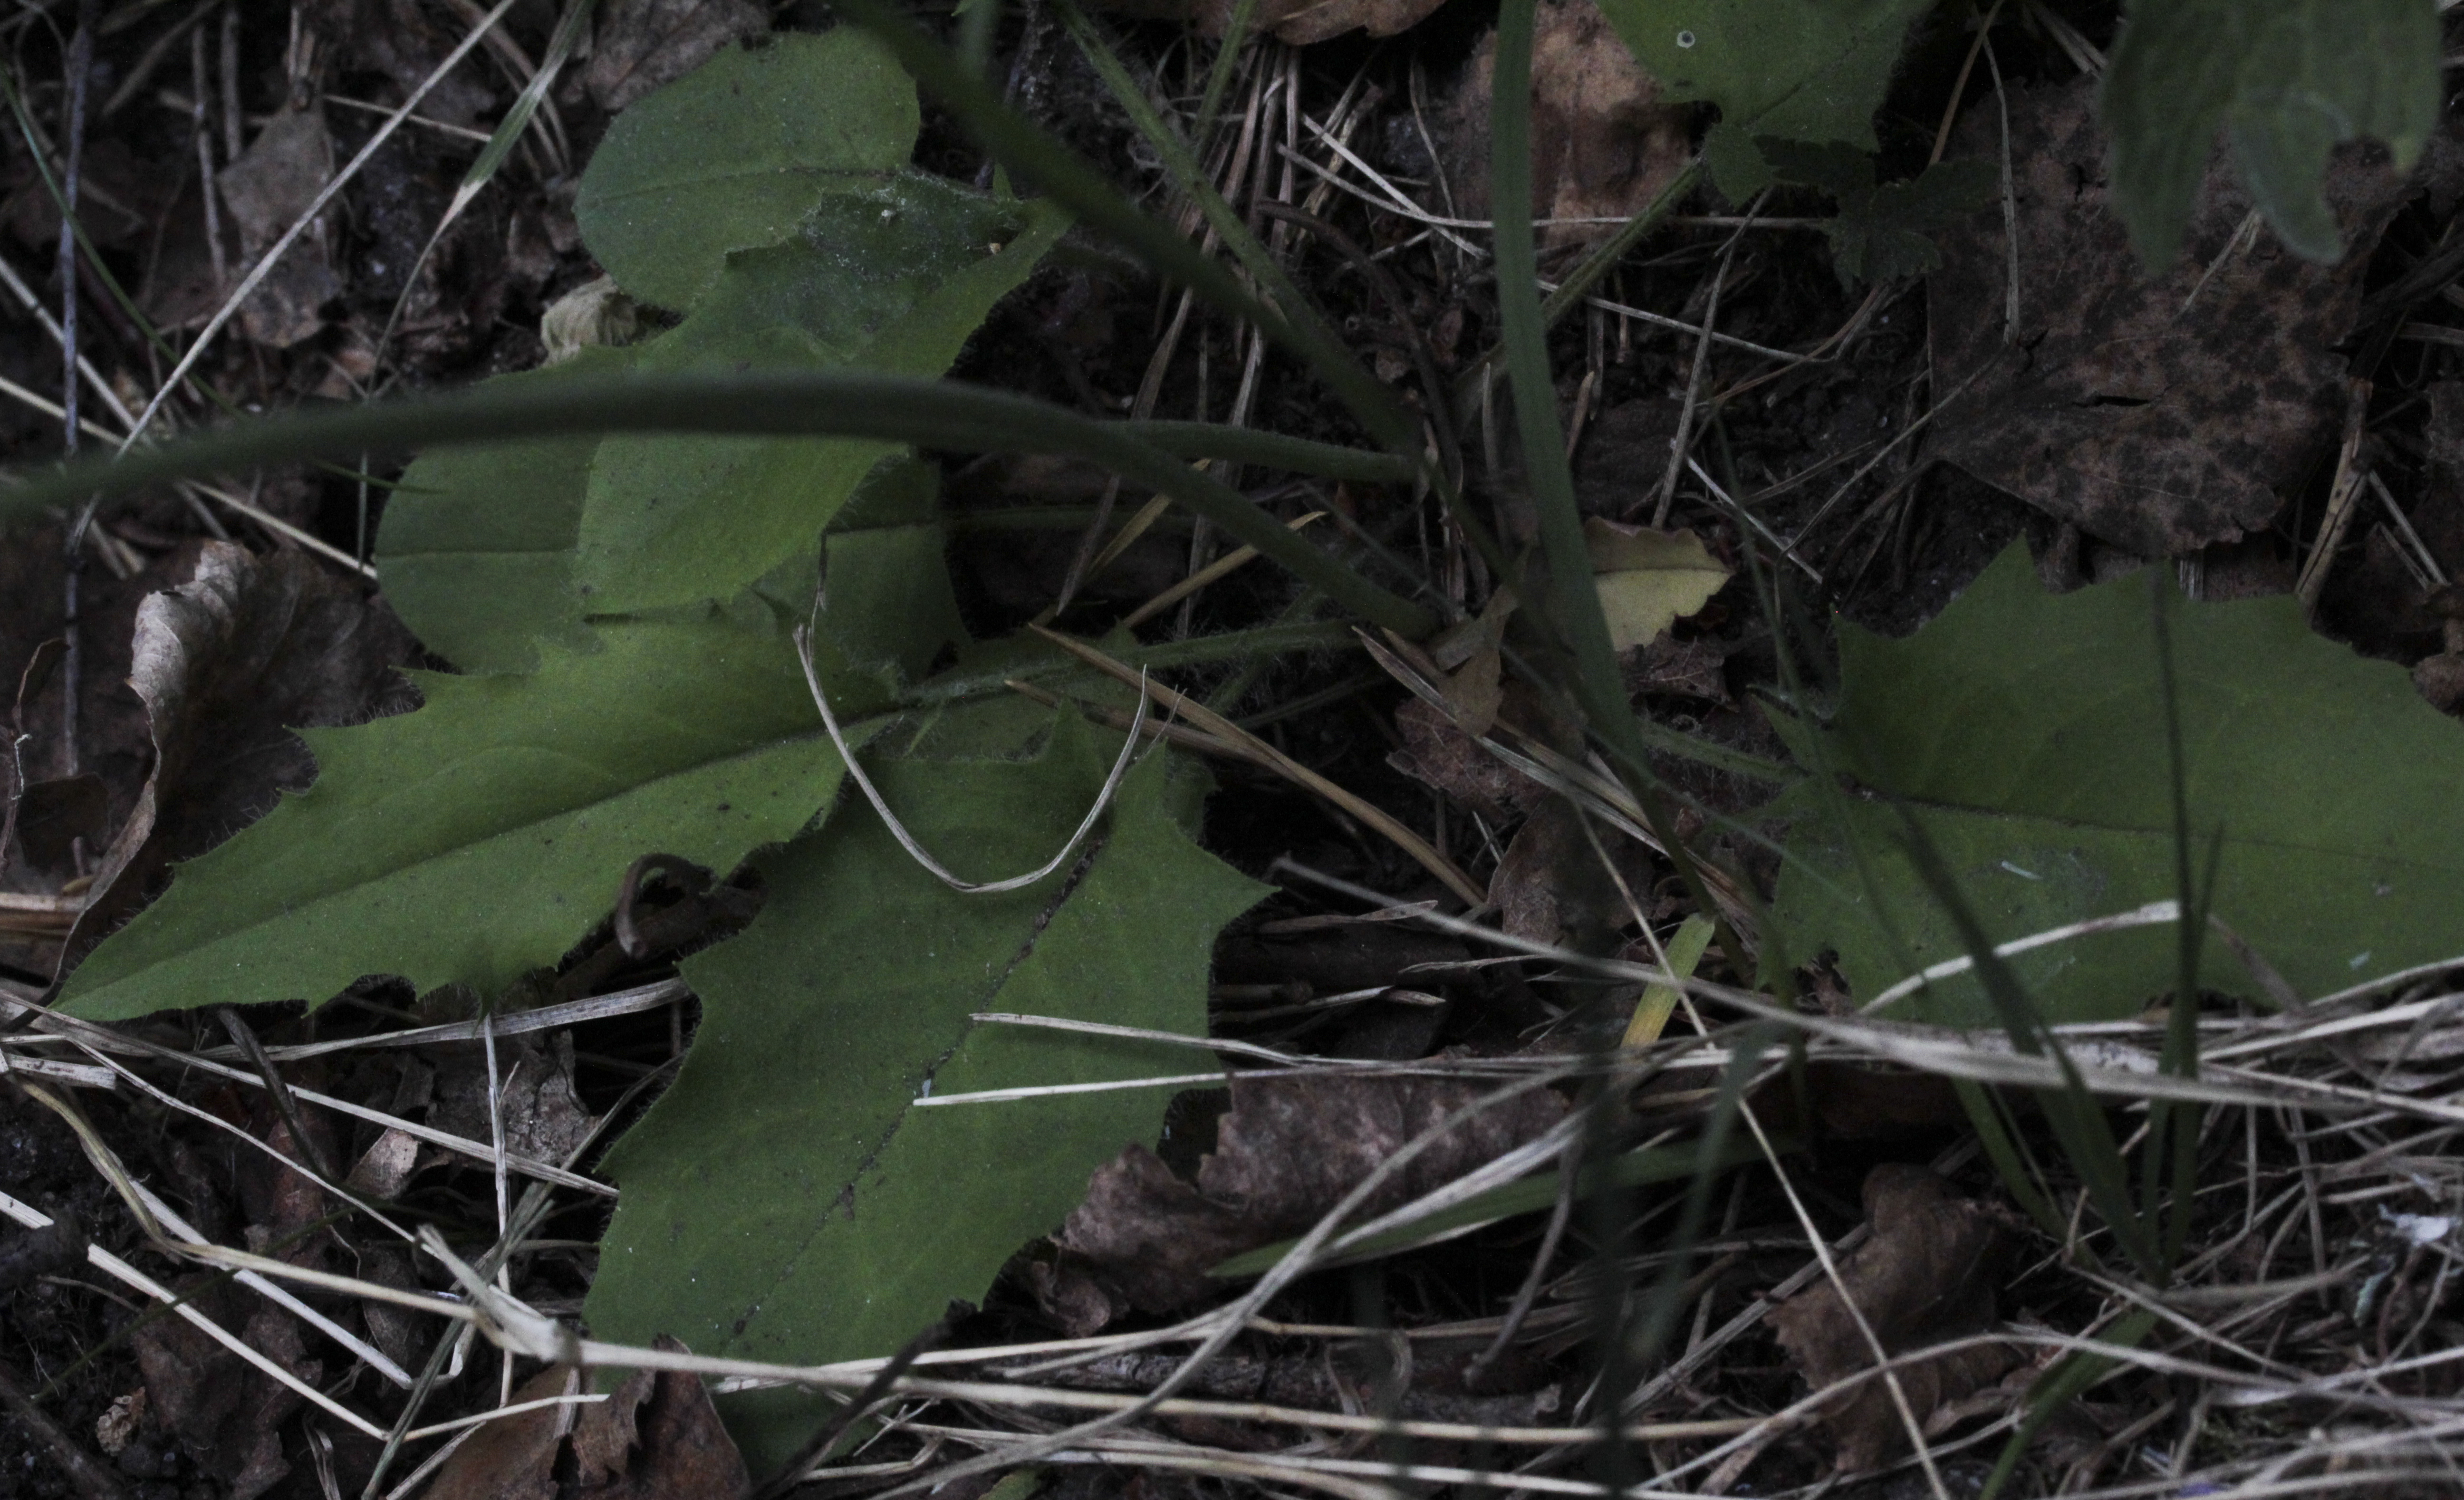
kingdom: Plantae
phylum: Tracheophyta
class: Magnoliopsida
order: Asterales
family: Asteraceae
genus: Hieracium
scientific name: Hieracium umbellatum
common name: Northern hawkweed
